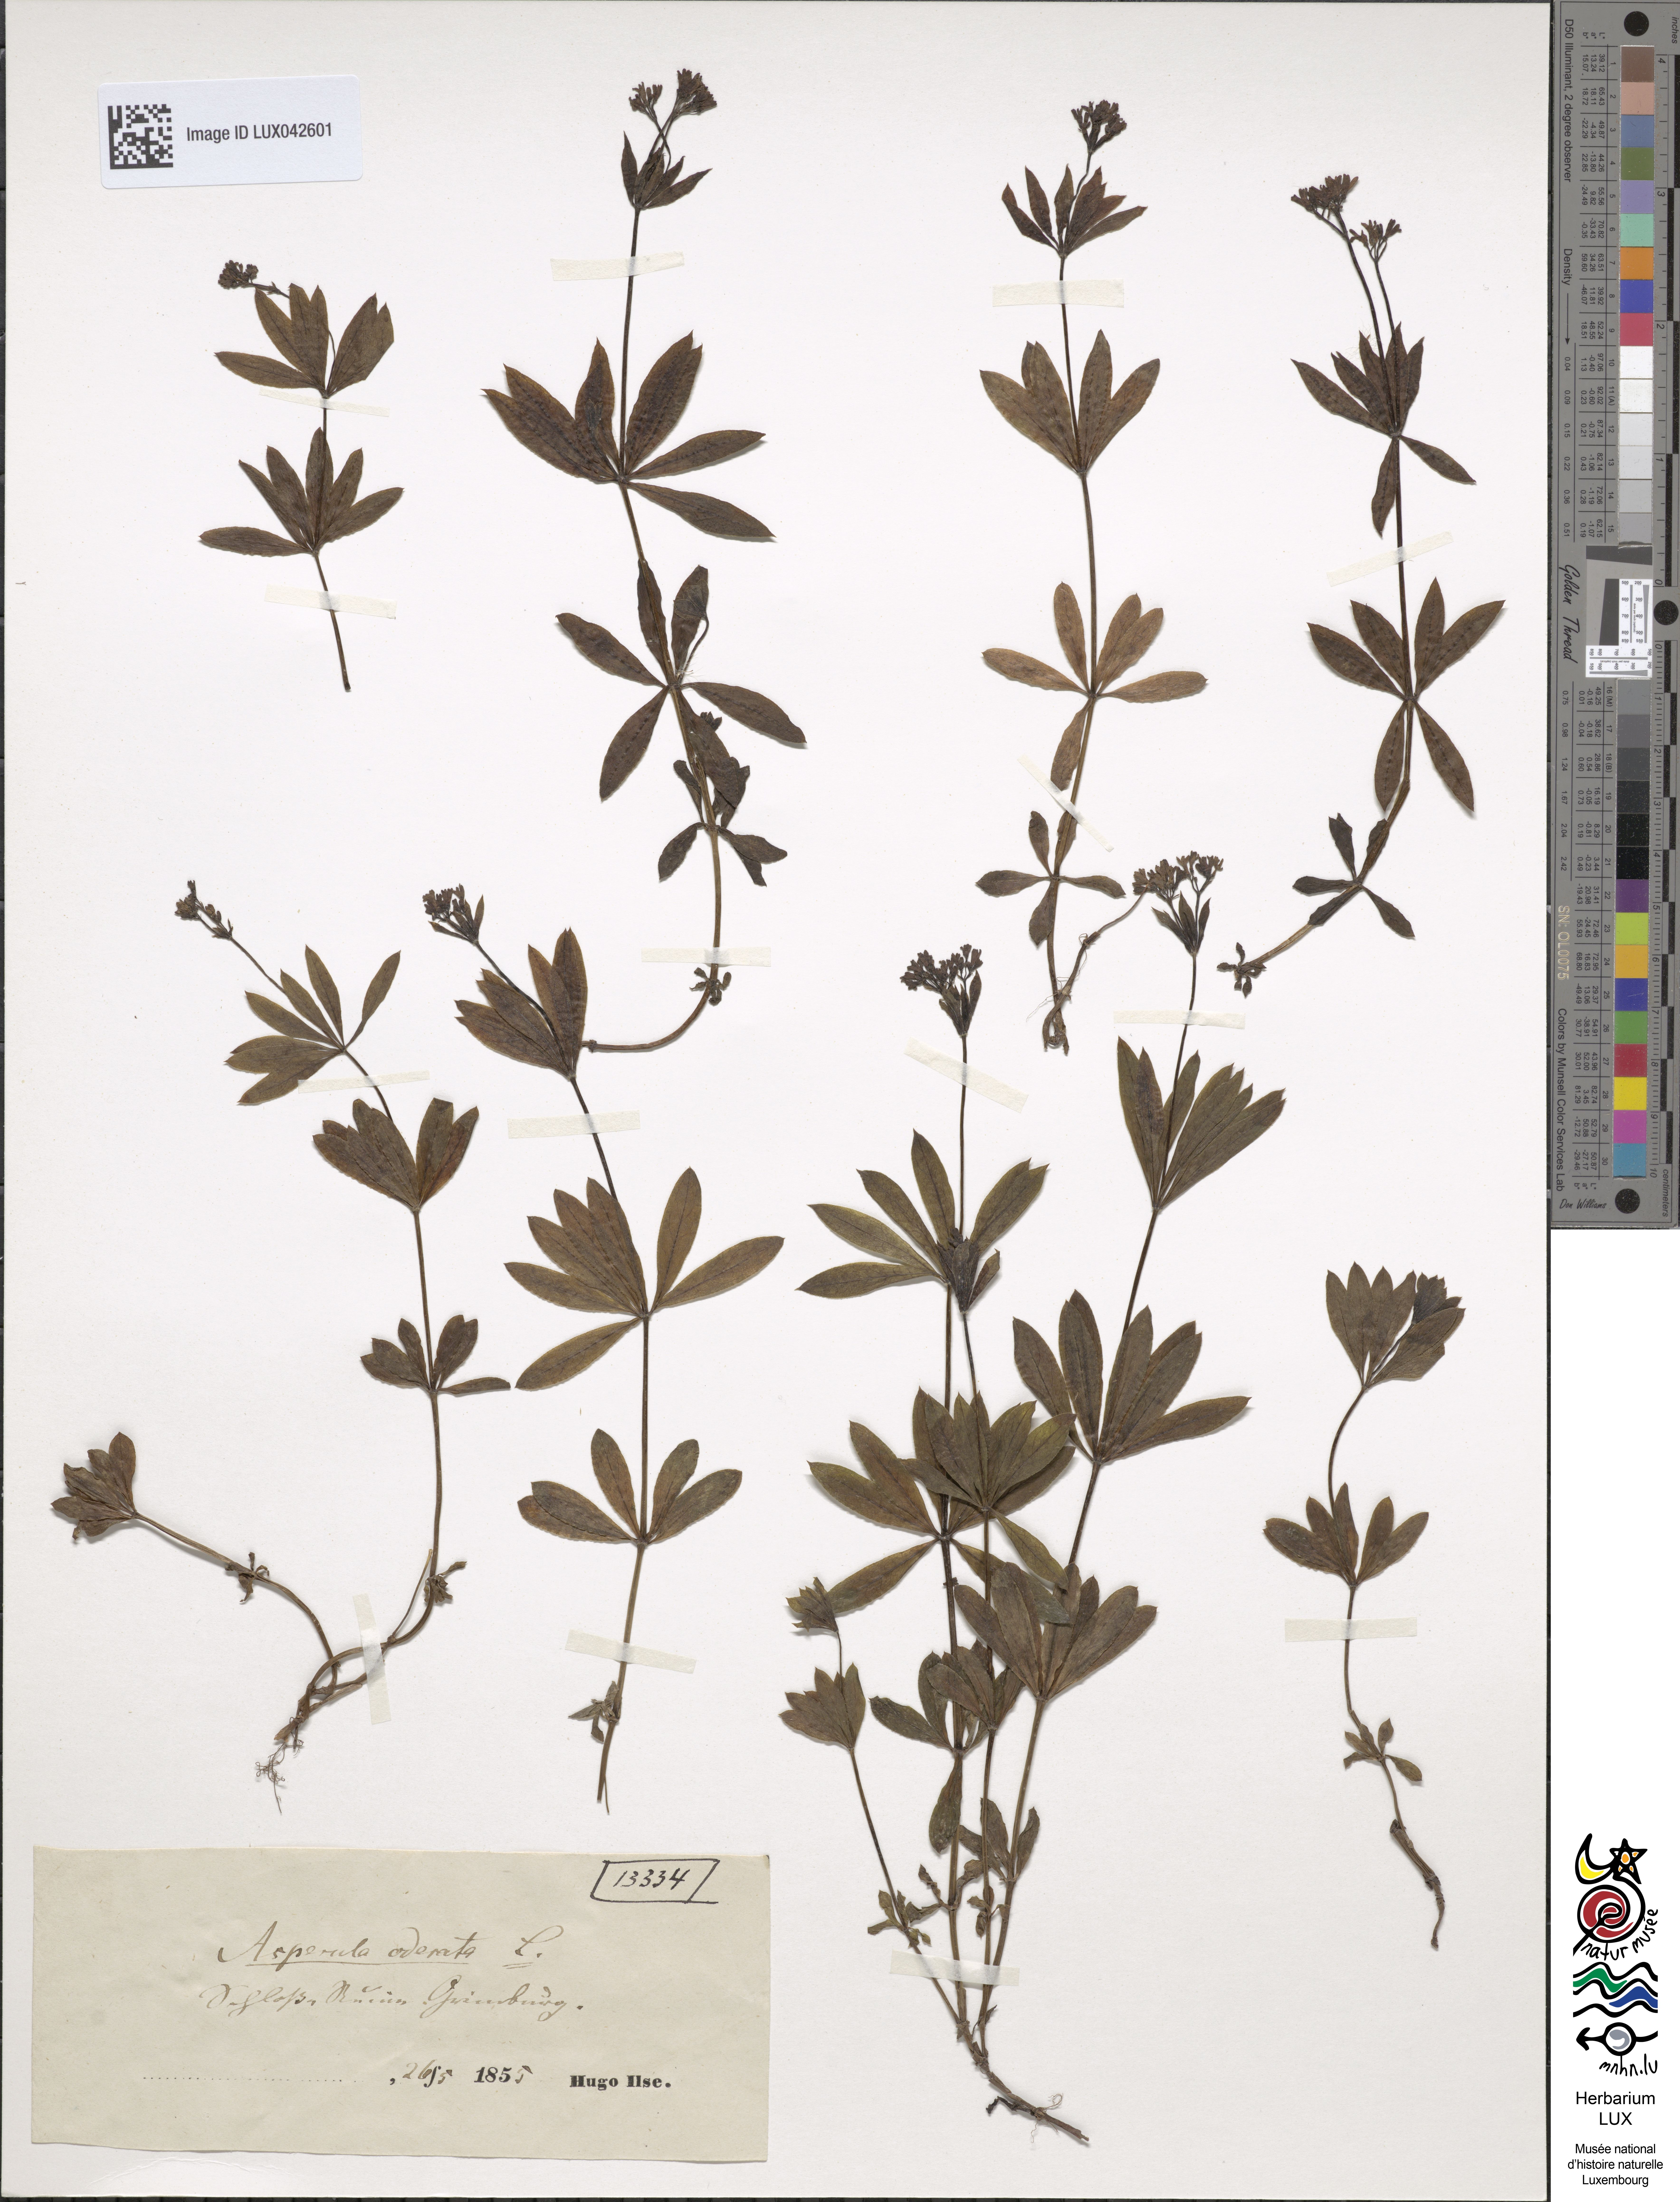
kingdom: Plantae
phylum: Tracheophyta
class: Magnoliopsida
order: Gentianales
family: Rubiaceae
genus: Galium
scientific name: Galium odoratum
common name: Sweet woodruff
